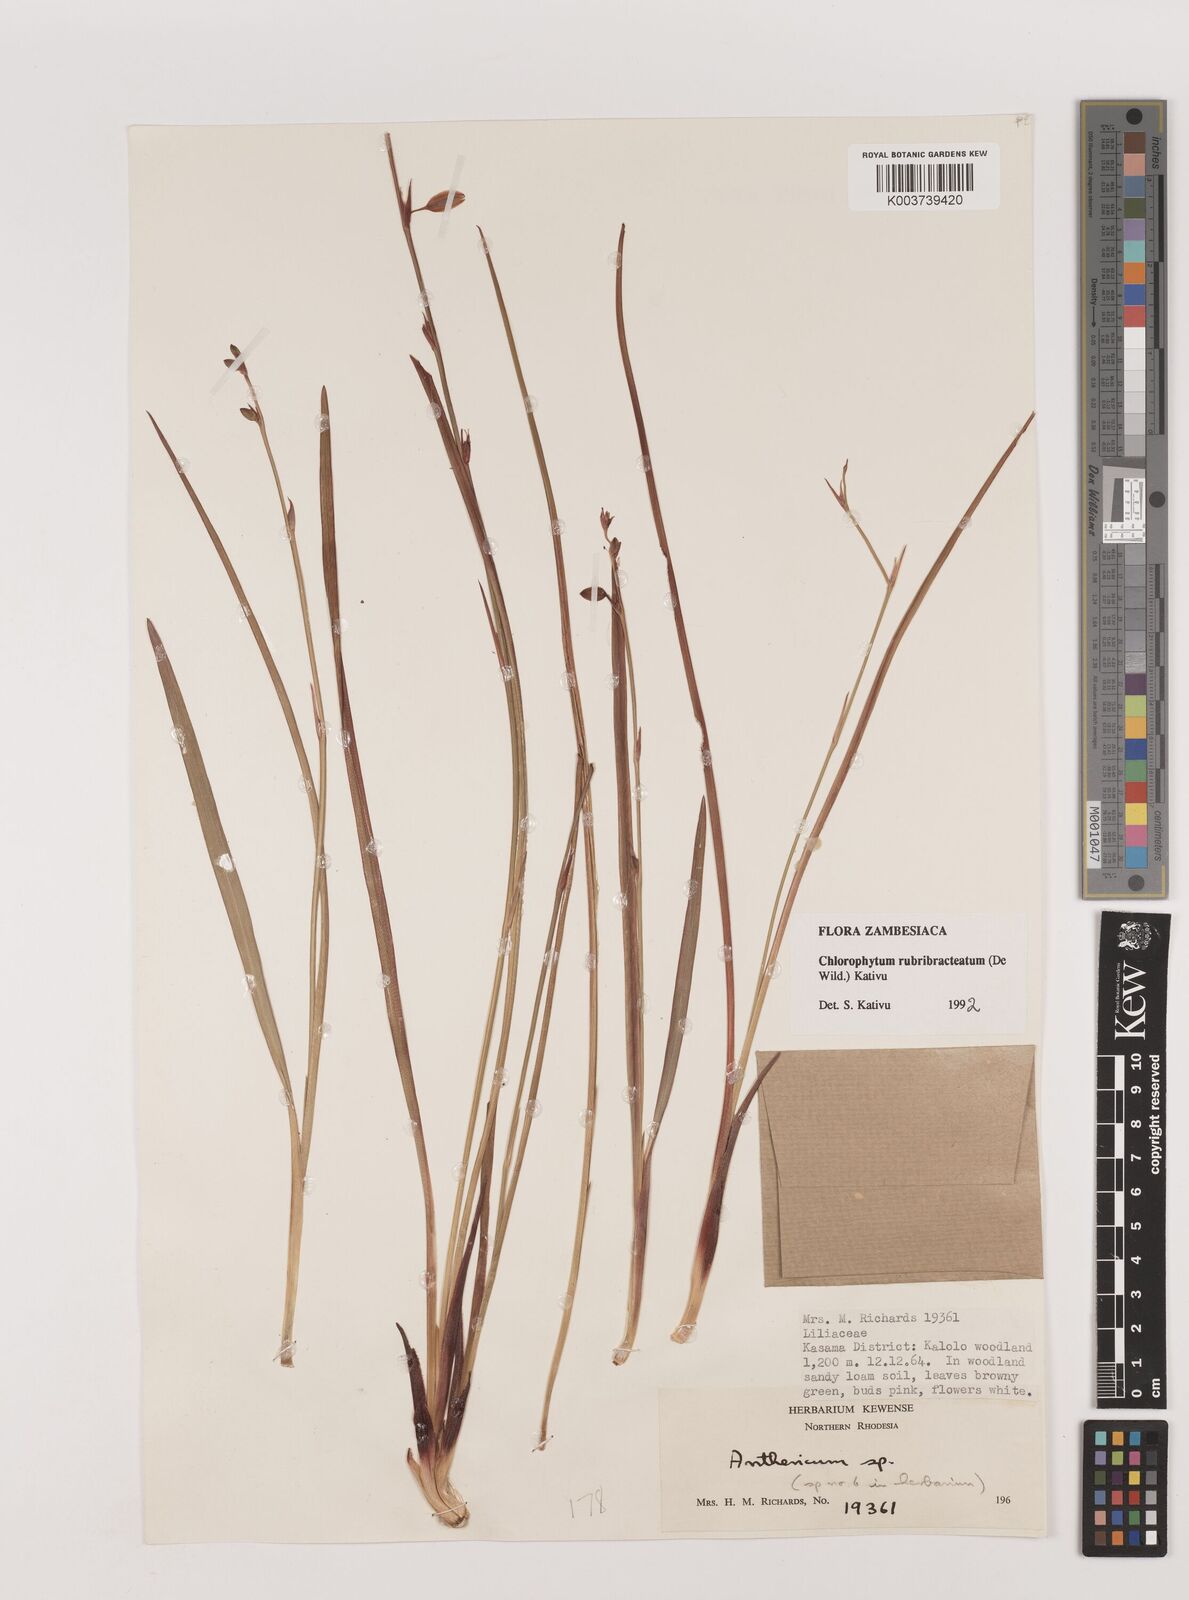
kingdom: Plantae
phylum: Tracheophyta
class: Liliopsida
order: Asparagales
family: Asparagaceae
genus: Chlorophytum
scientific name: Chlorophytum rubribracteatum
